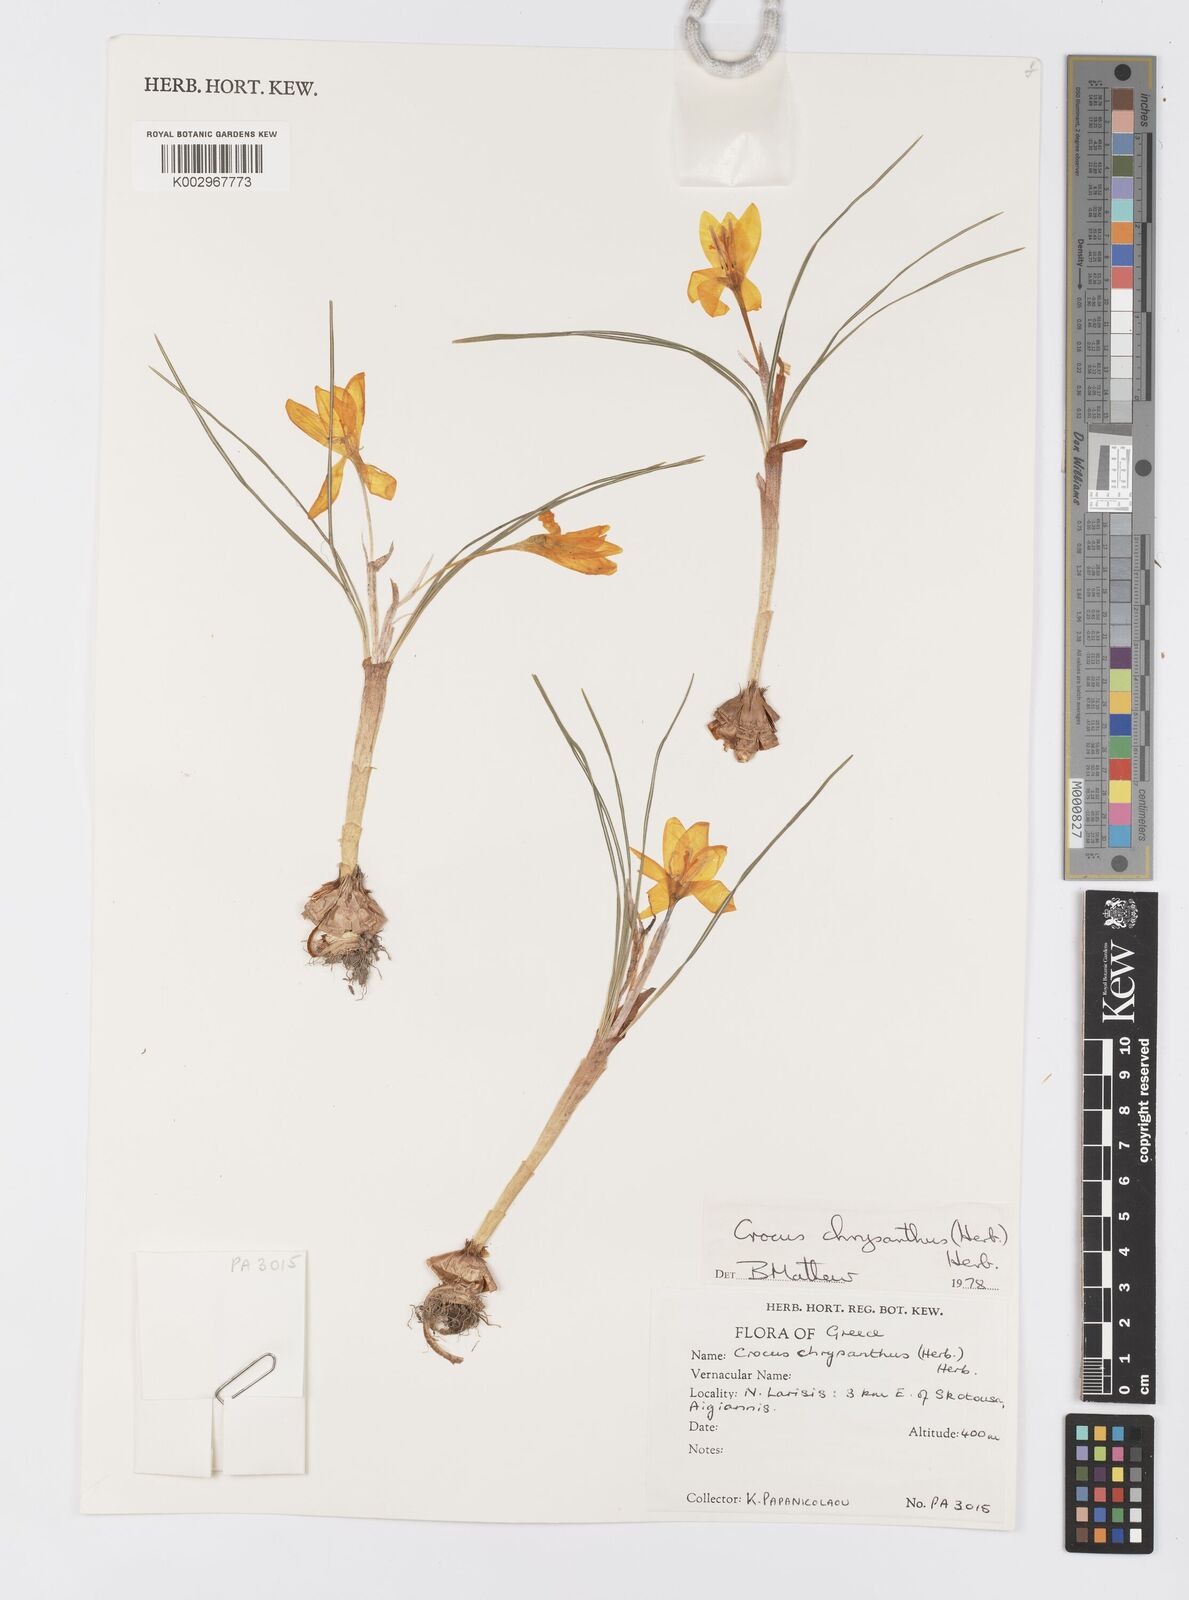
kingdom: Plantae
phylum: Tracheophyta
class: Liliopsida
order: Asparagales
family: Iridaceae
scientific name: Iridaceae
